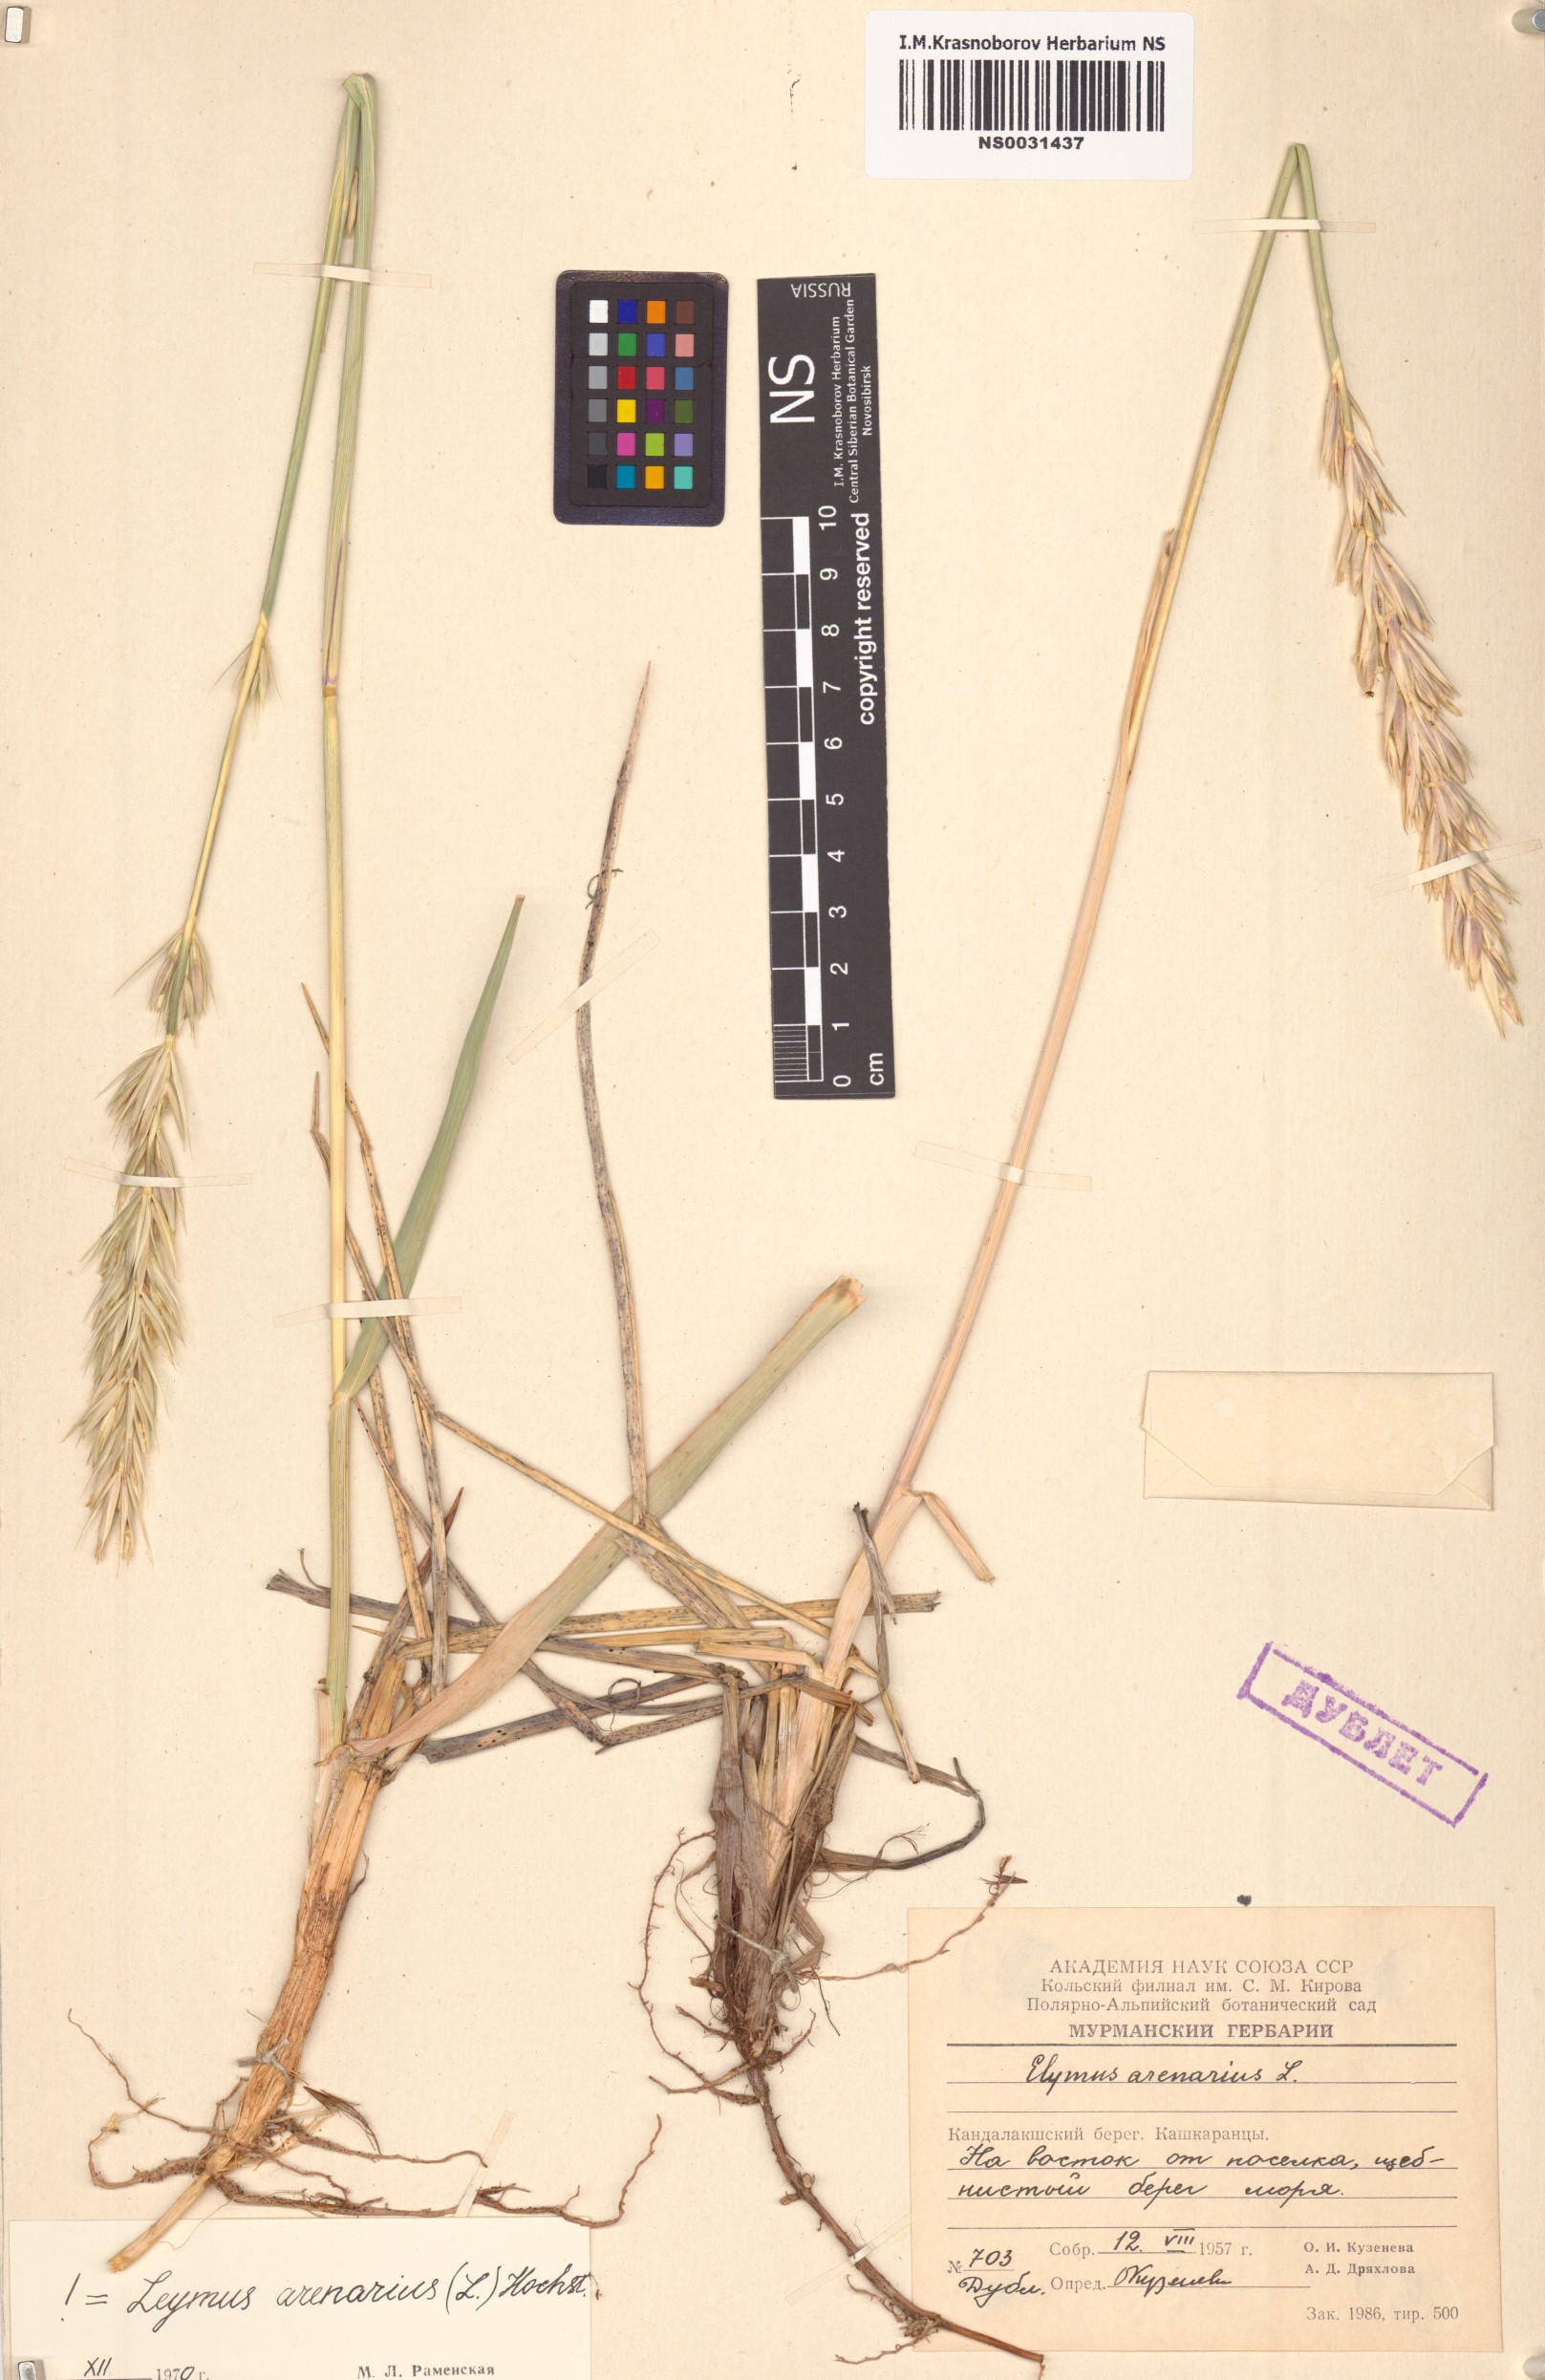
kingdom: Plantae
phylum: Tracheophyta
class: Liliopsida
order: Poales
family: Poaceae
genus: Leymus
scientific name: Leymus arenarius
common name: Lyme-grass
